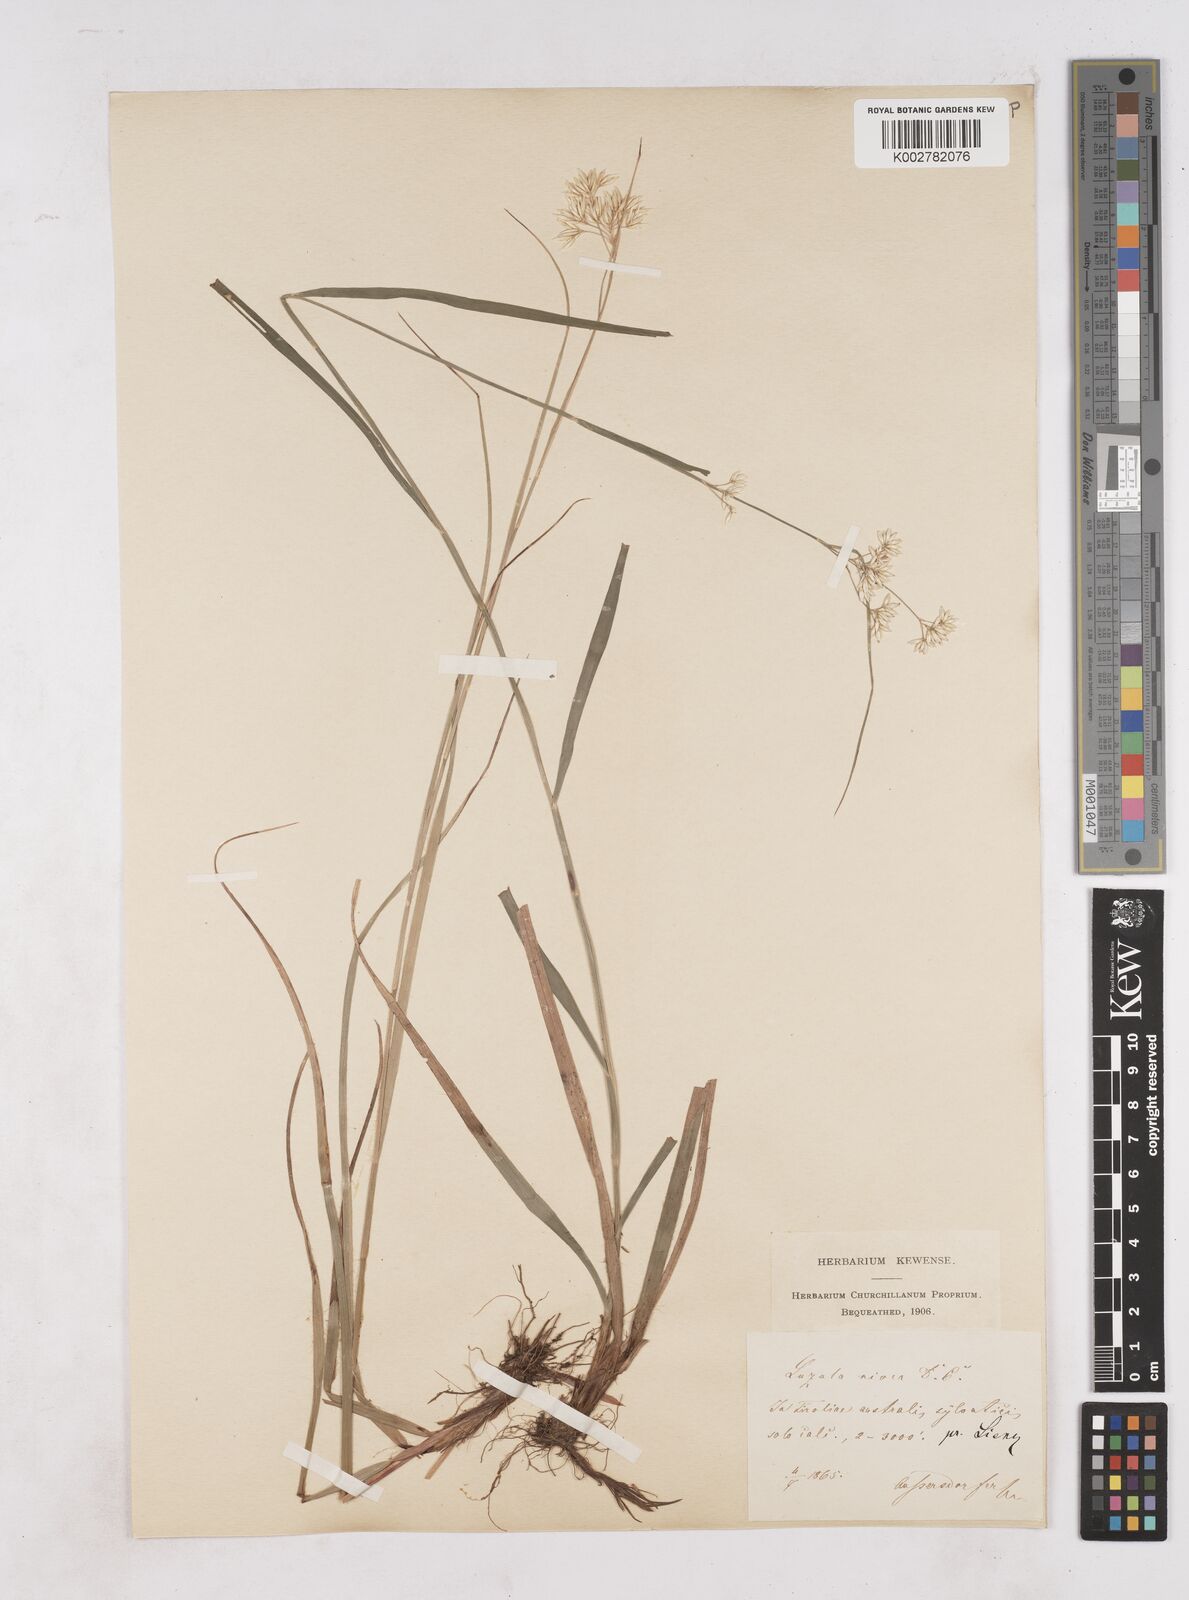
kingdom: Plantae
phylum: Tracheophyta
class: Liliopsida
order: Poales
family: Juncaceae
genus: Luzula
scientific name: Luzula nivea
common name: Snow-white wood-rush
